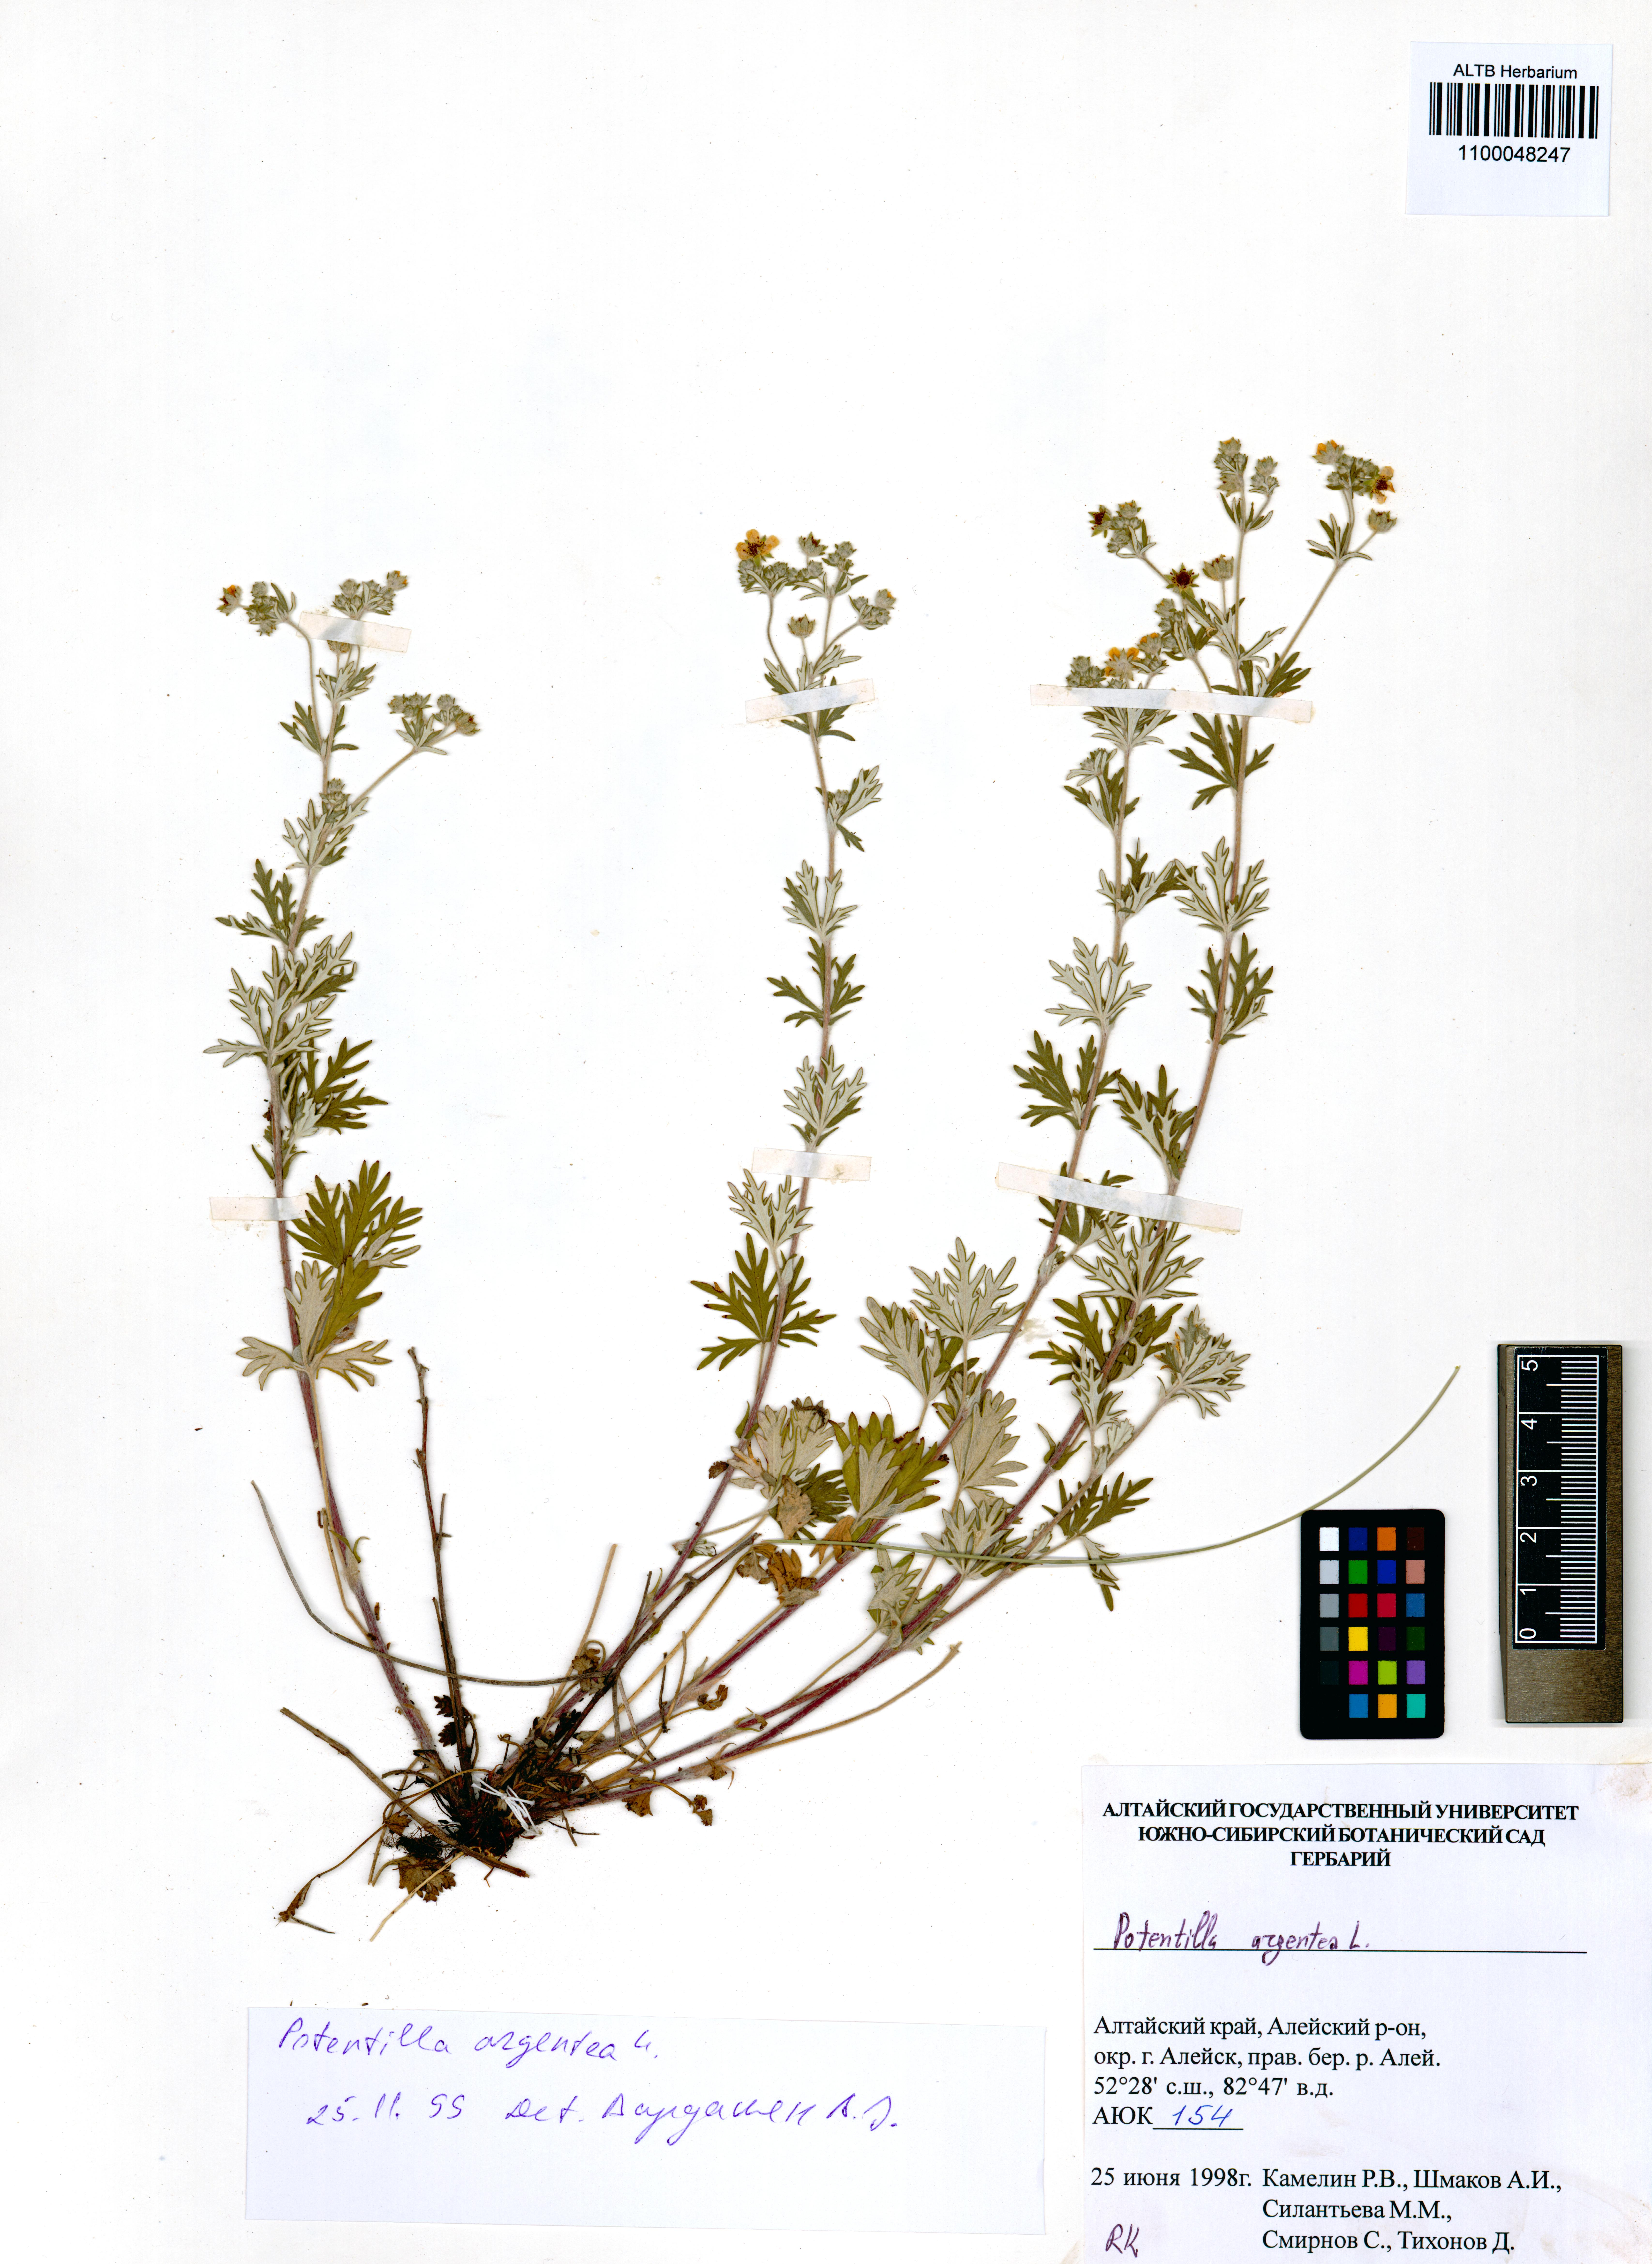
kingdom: Plantae
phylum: Tracheophyta
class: Magnoliopsida
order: Rosales
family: Rosaceae
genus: Potentilla
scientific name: Potentilla argentea
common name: Hoary cinquefoil
